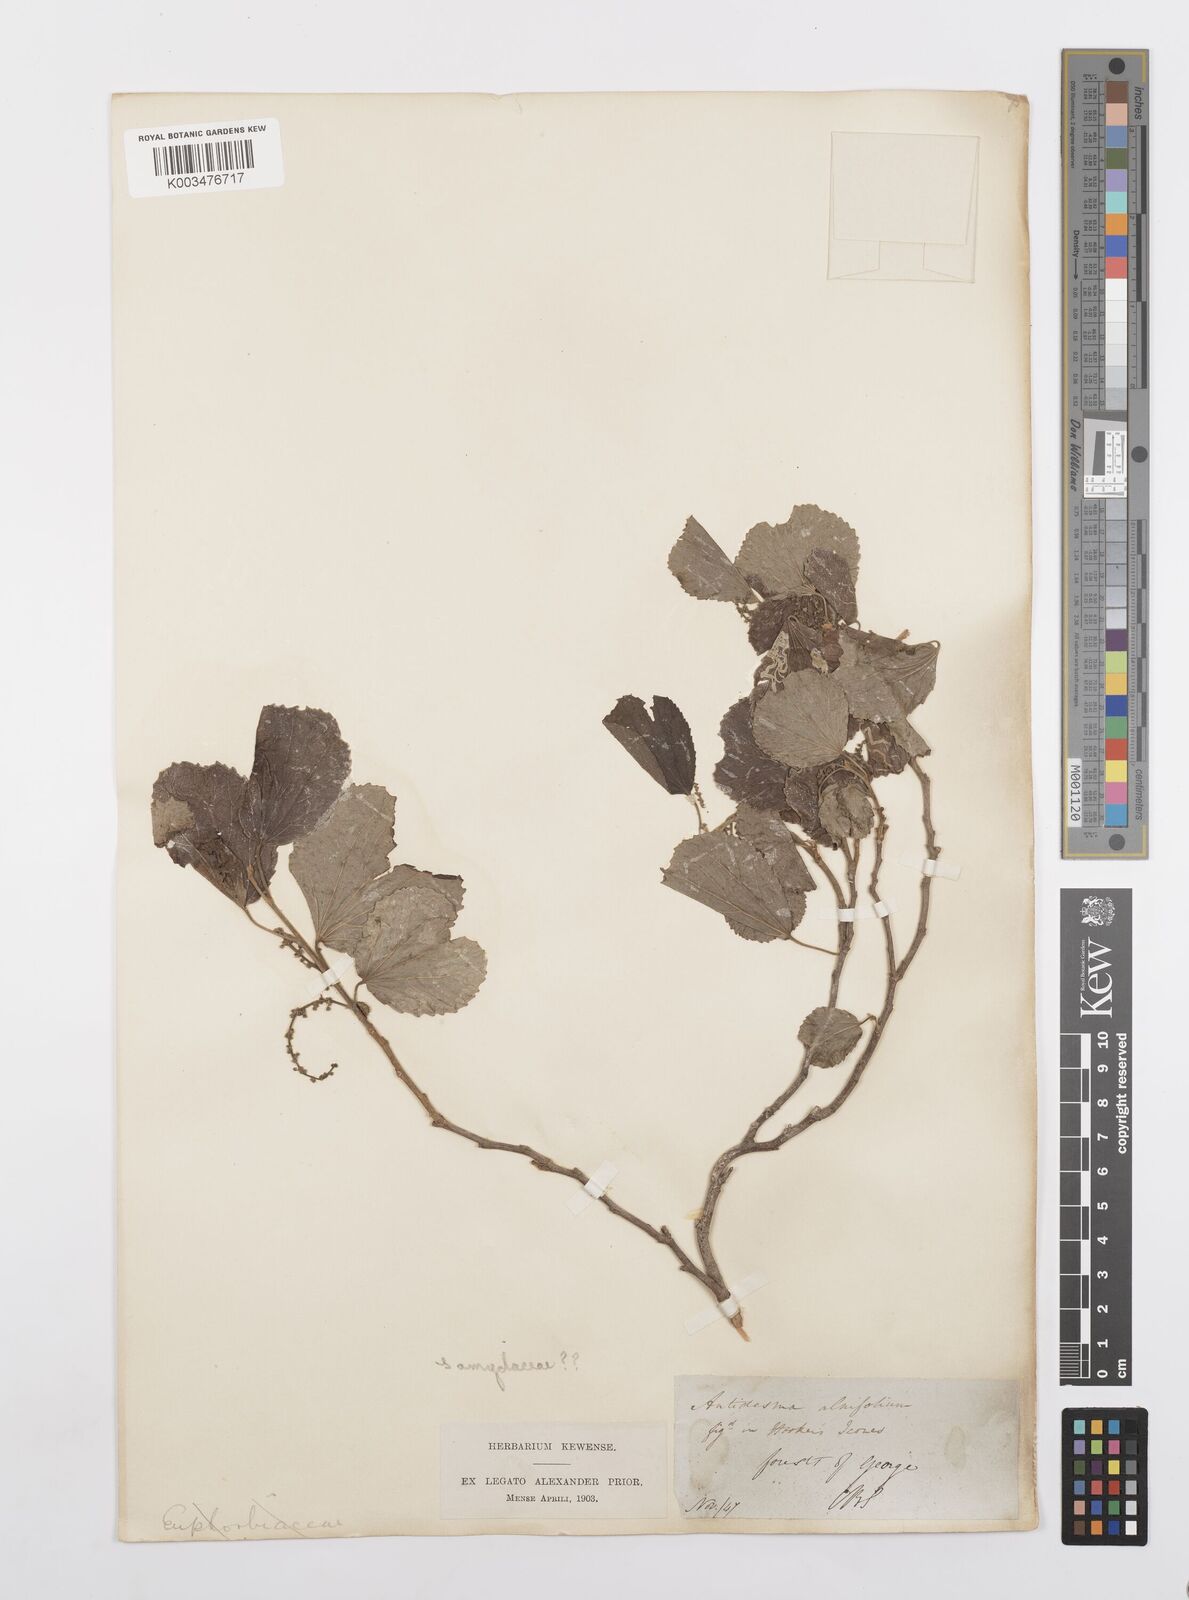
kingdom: Plantae
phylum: Tracheophyta
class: Magnoliopsida
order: Malpighiales
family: Salicaceae
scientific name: Salicaceae
